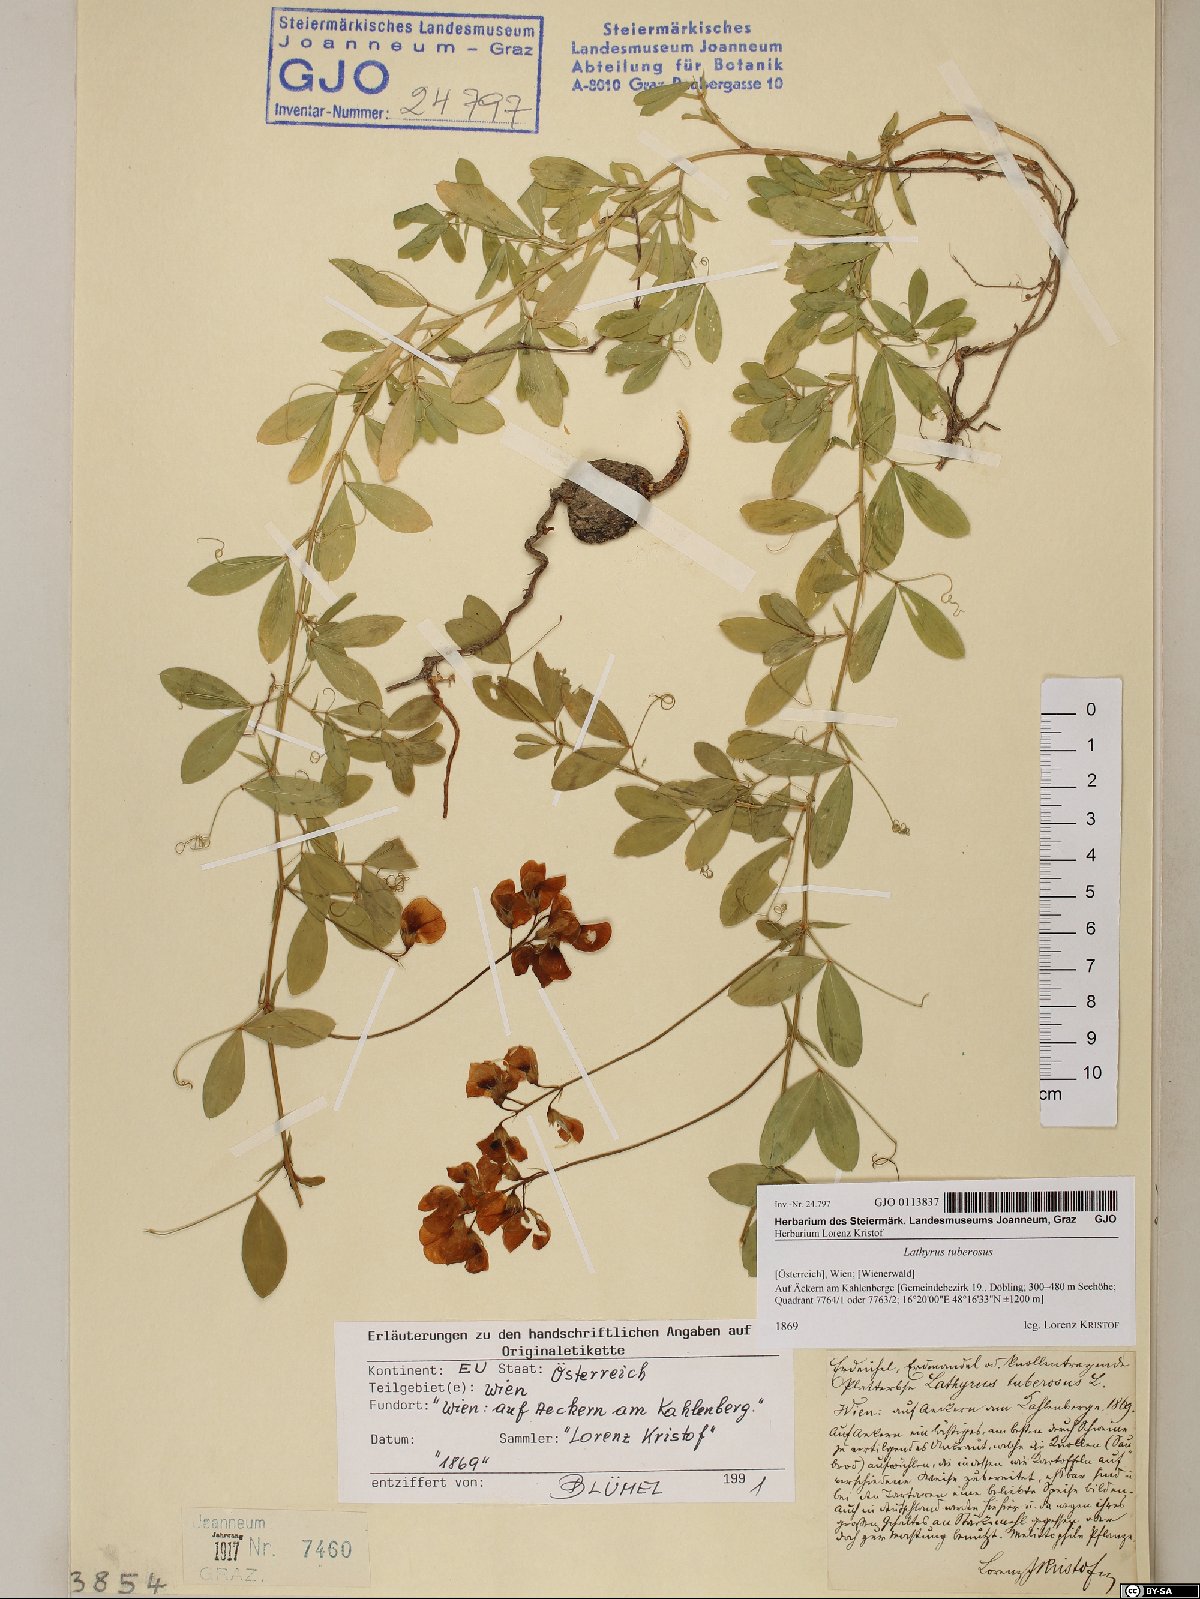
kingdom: Plantae
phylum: Tracheophyta
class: Magnoliopsida
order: Fabales
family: Fabaceae
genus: Lathyrus
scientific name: Lathyrus tuberosus
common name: Tuberous pea
